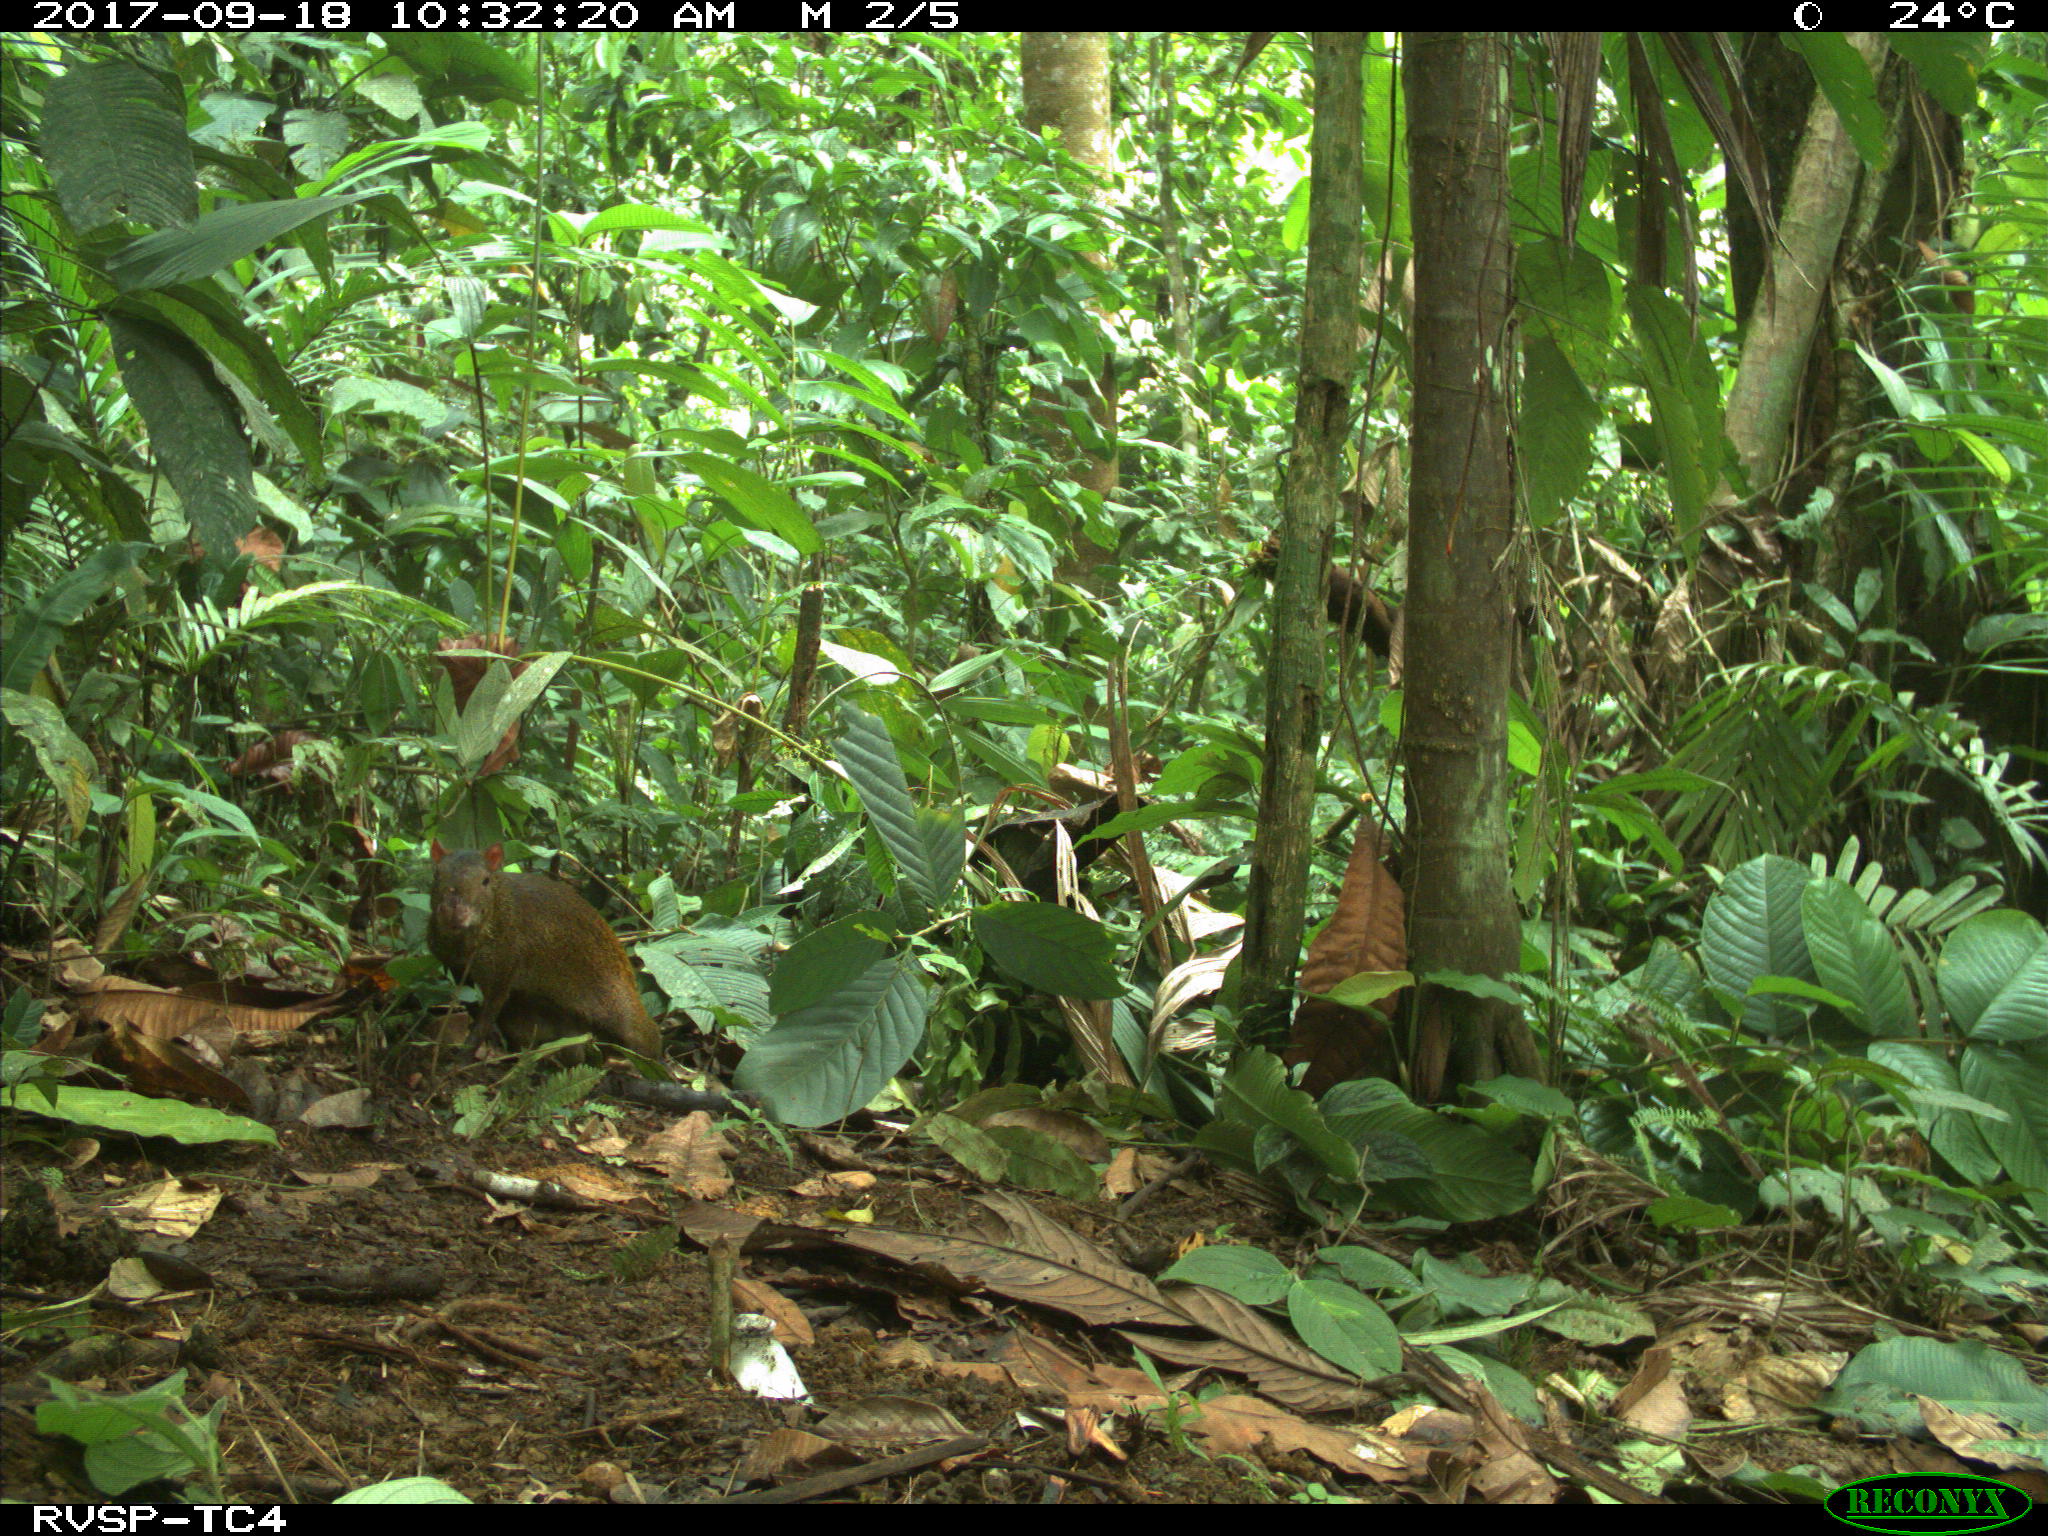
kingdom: Animalia
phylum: Chordata
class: Mammalia
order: Rodentia
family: Dasyproctidae
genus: Dasyprocta
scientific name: Dasyprocta punctata
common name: Central american agouti
